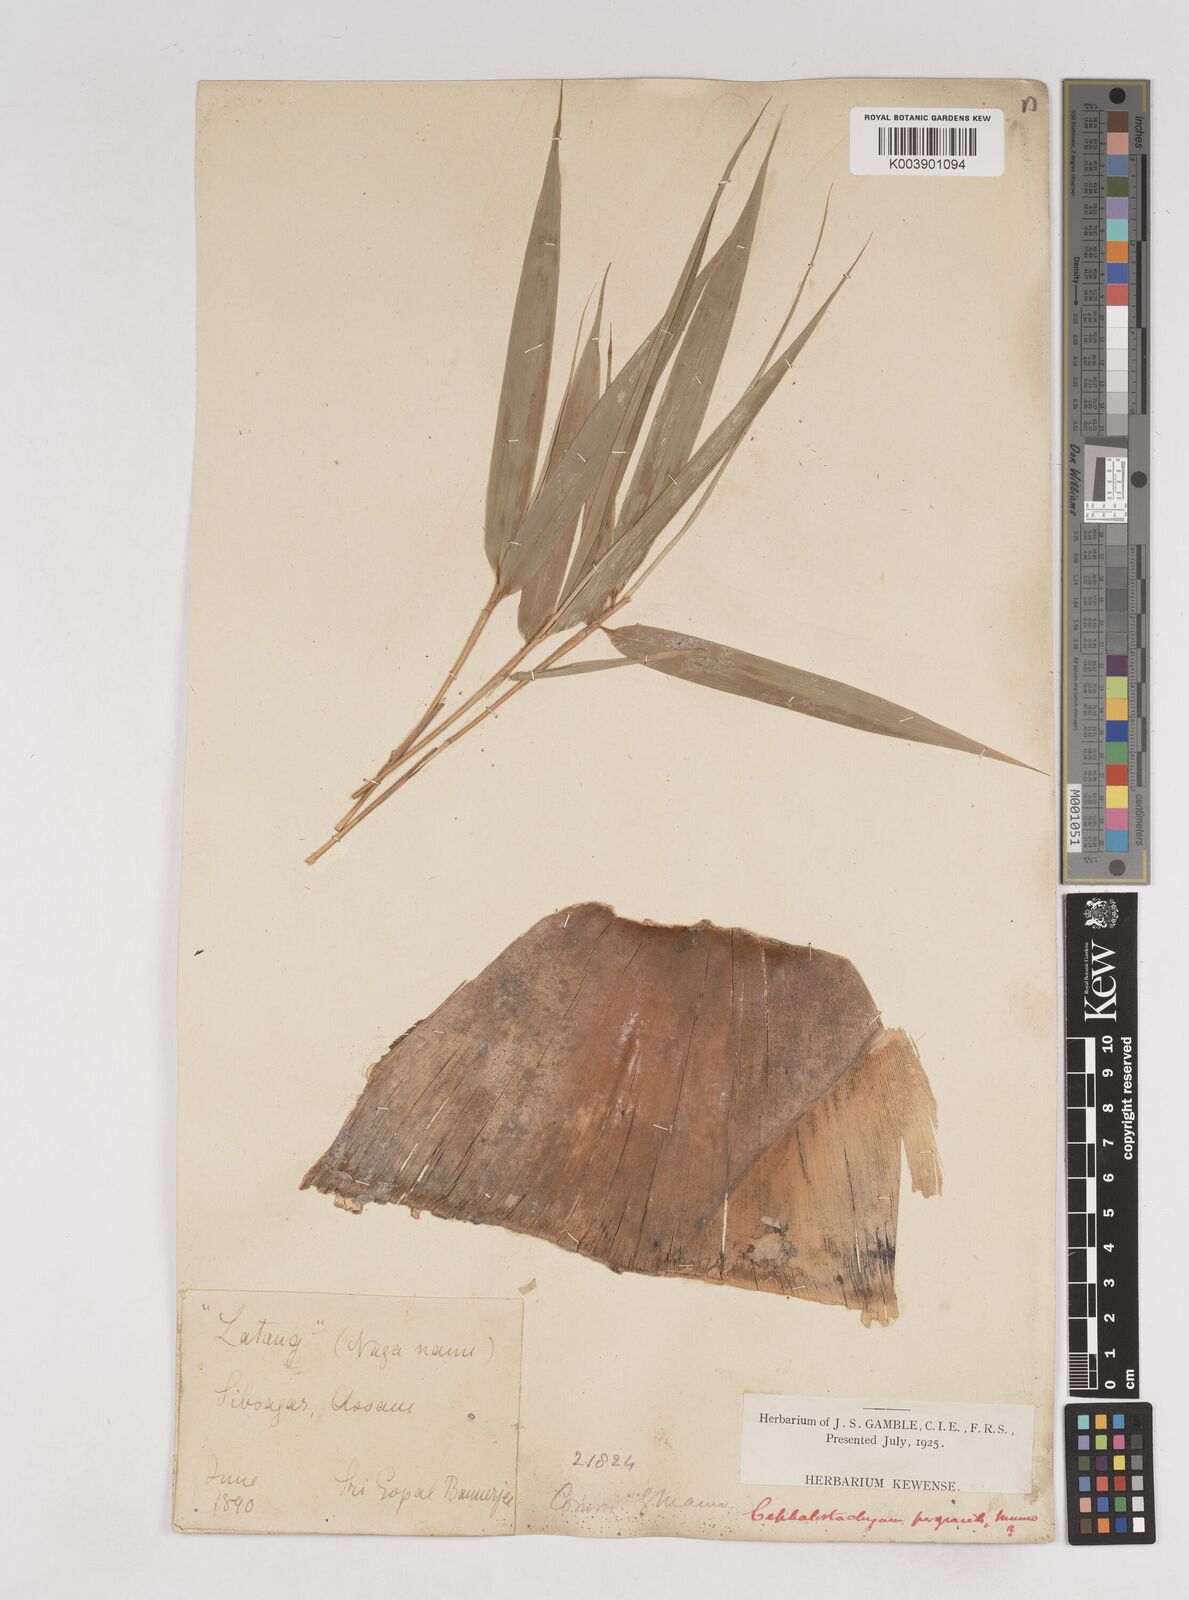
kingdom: Plantae
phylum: Tracheophyta
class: Liliopsida
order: Poales
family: Poaceae
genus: Schizostachyum
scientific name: Schizostachyum pergracile
